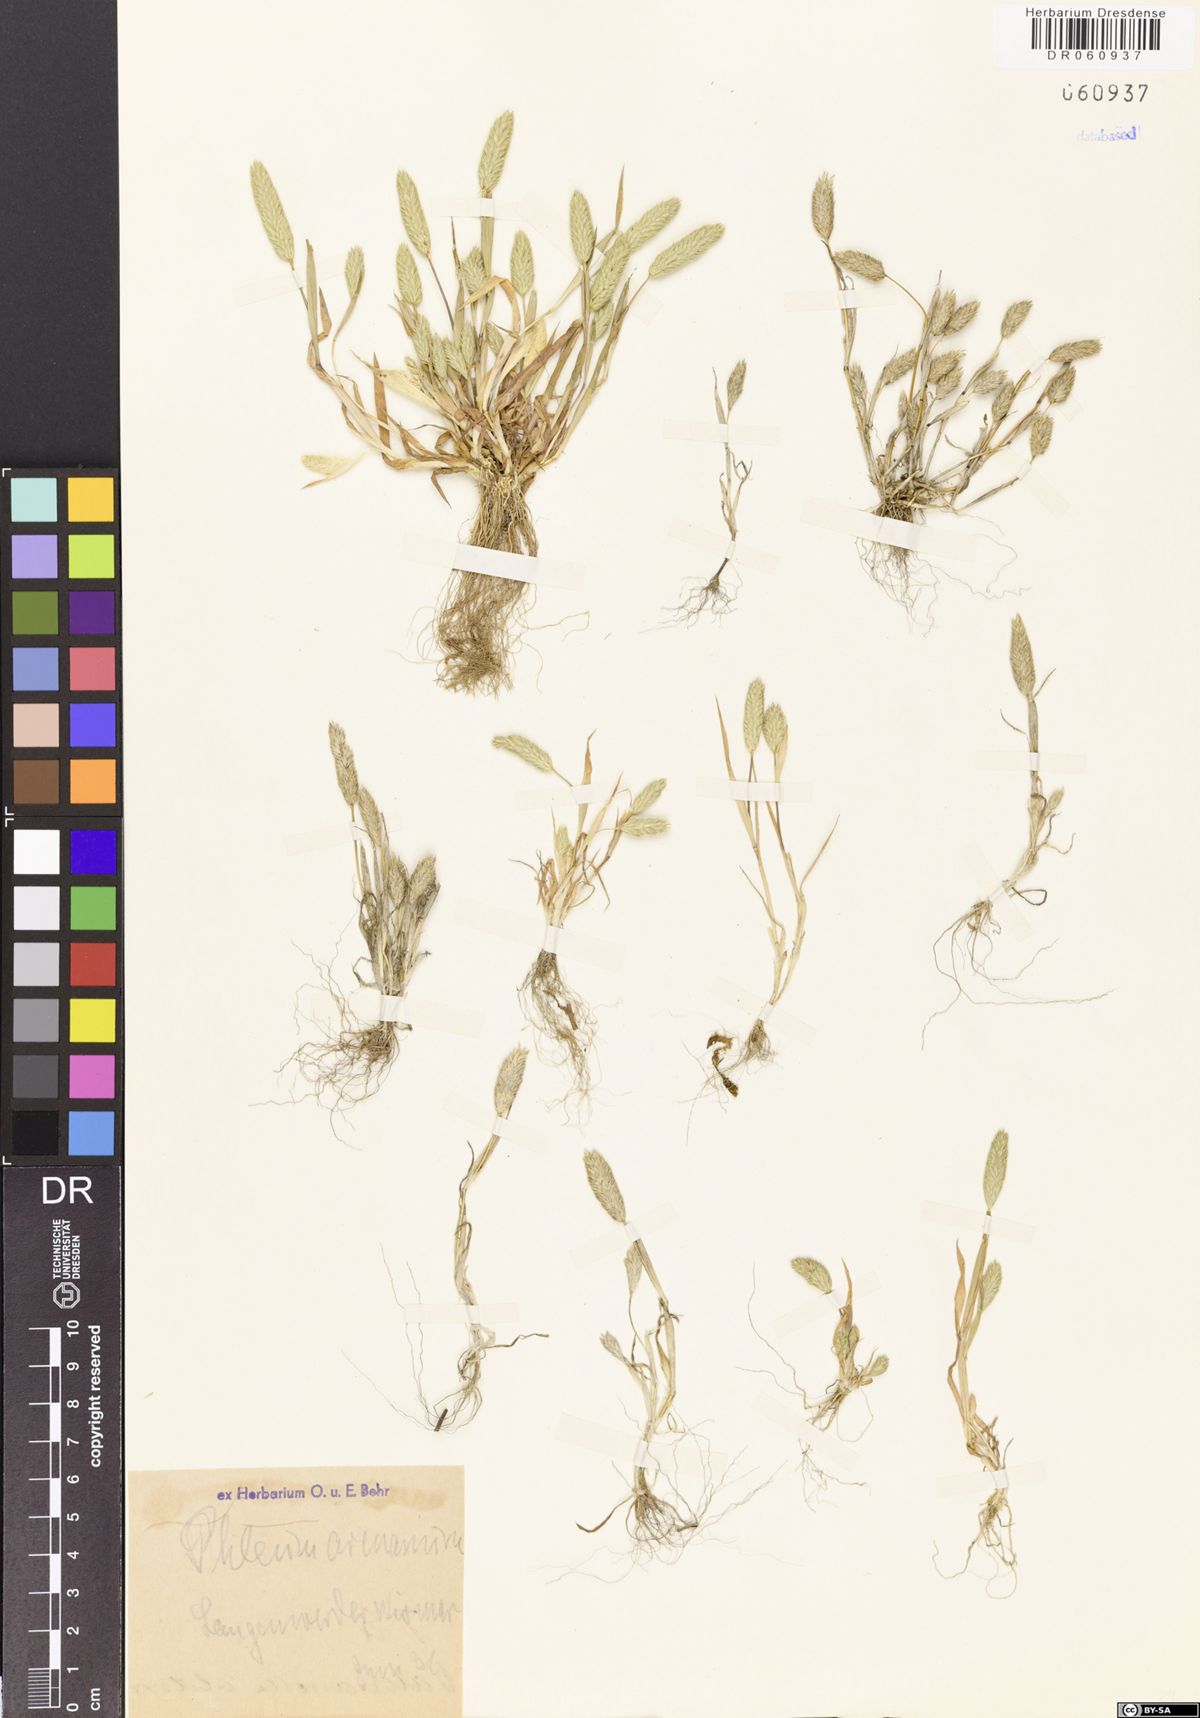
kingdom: Plantae
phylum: Tracheophyta
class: Liliopsida
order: Poales
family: Poaceae
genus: Phleum
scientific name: Phleum arenarium
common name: Sand cat's-tail
